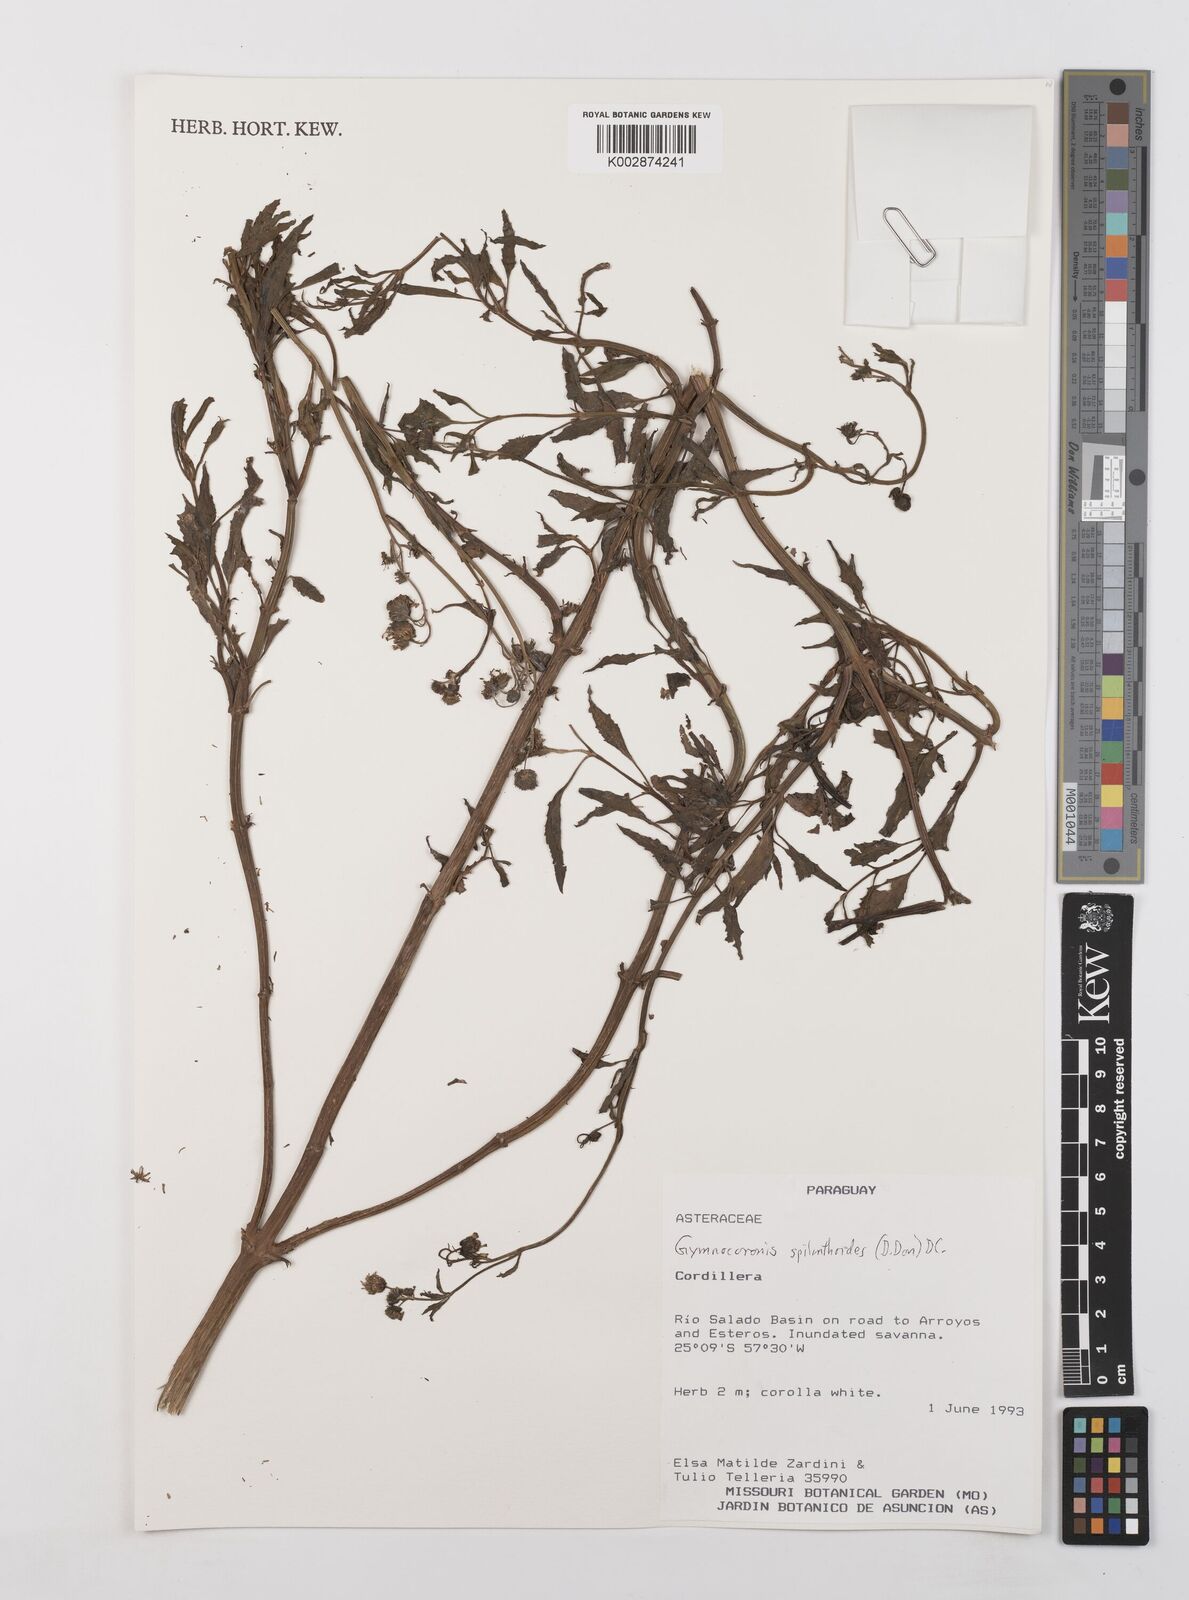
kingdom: Plantae
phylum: Tracheophyta
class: Magnoliopsida
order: Asterales
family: Asteraceae
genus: Gymnocoronis
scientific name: Gymnocoronis spilanthoides
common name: Senegal teaplant
